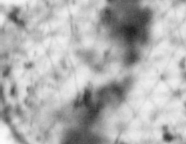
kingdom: Animalia
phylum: Chordata
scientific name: Chordata
